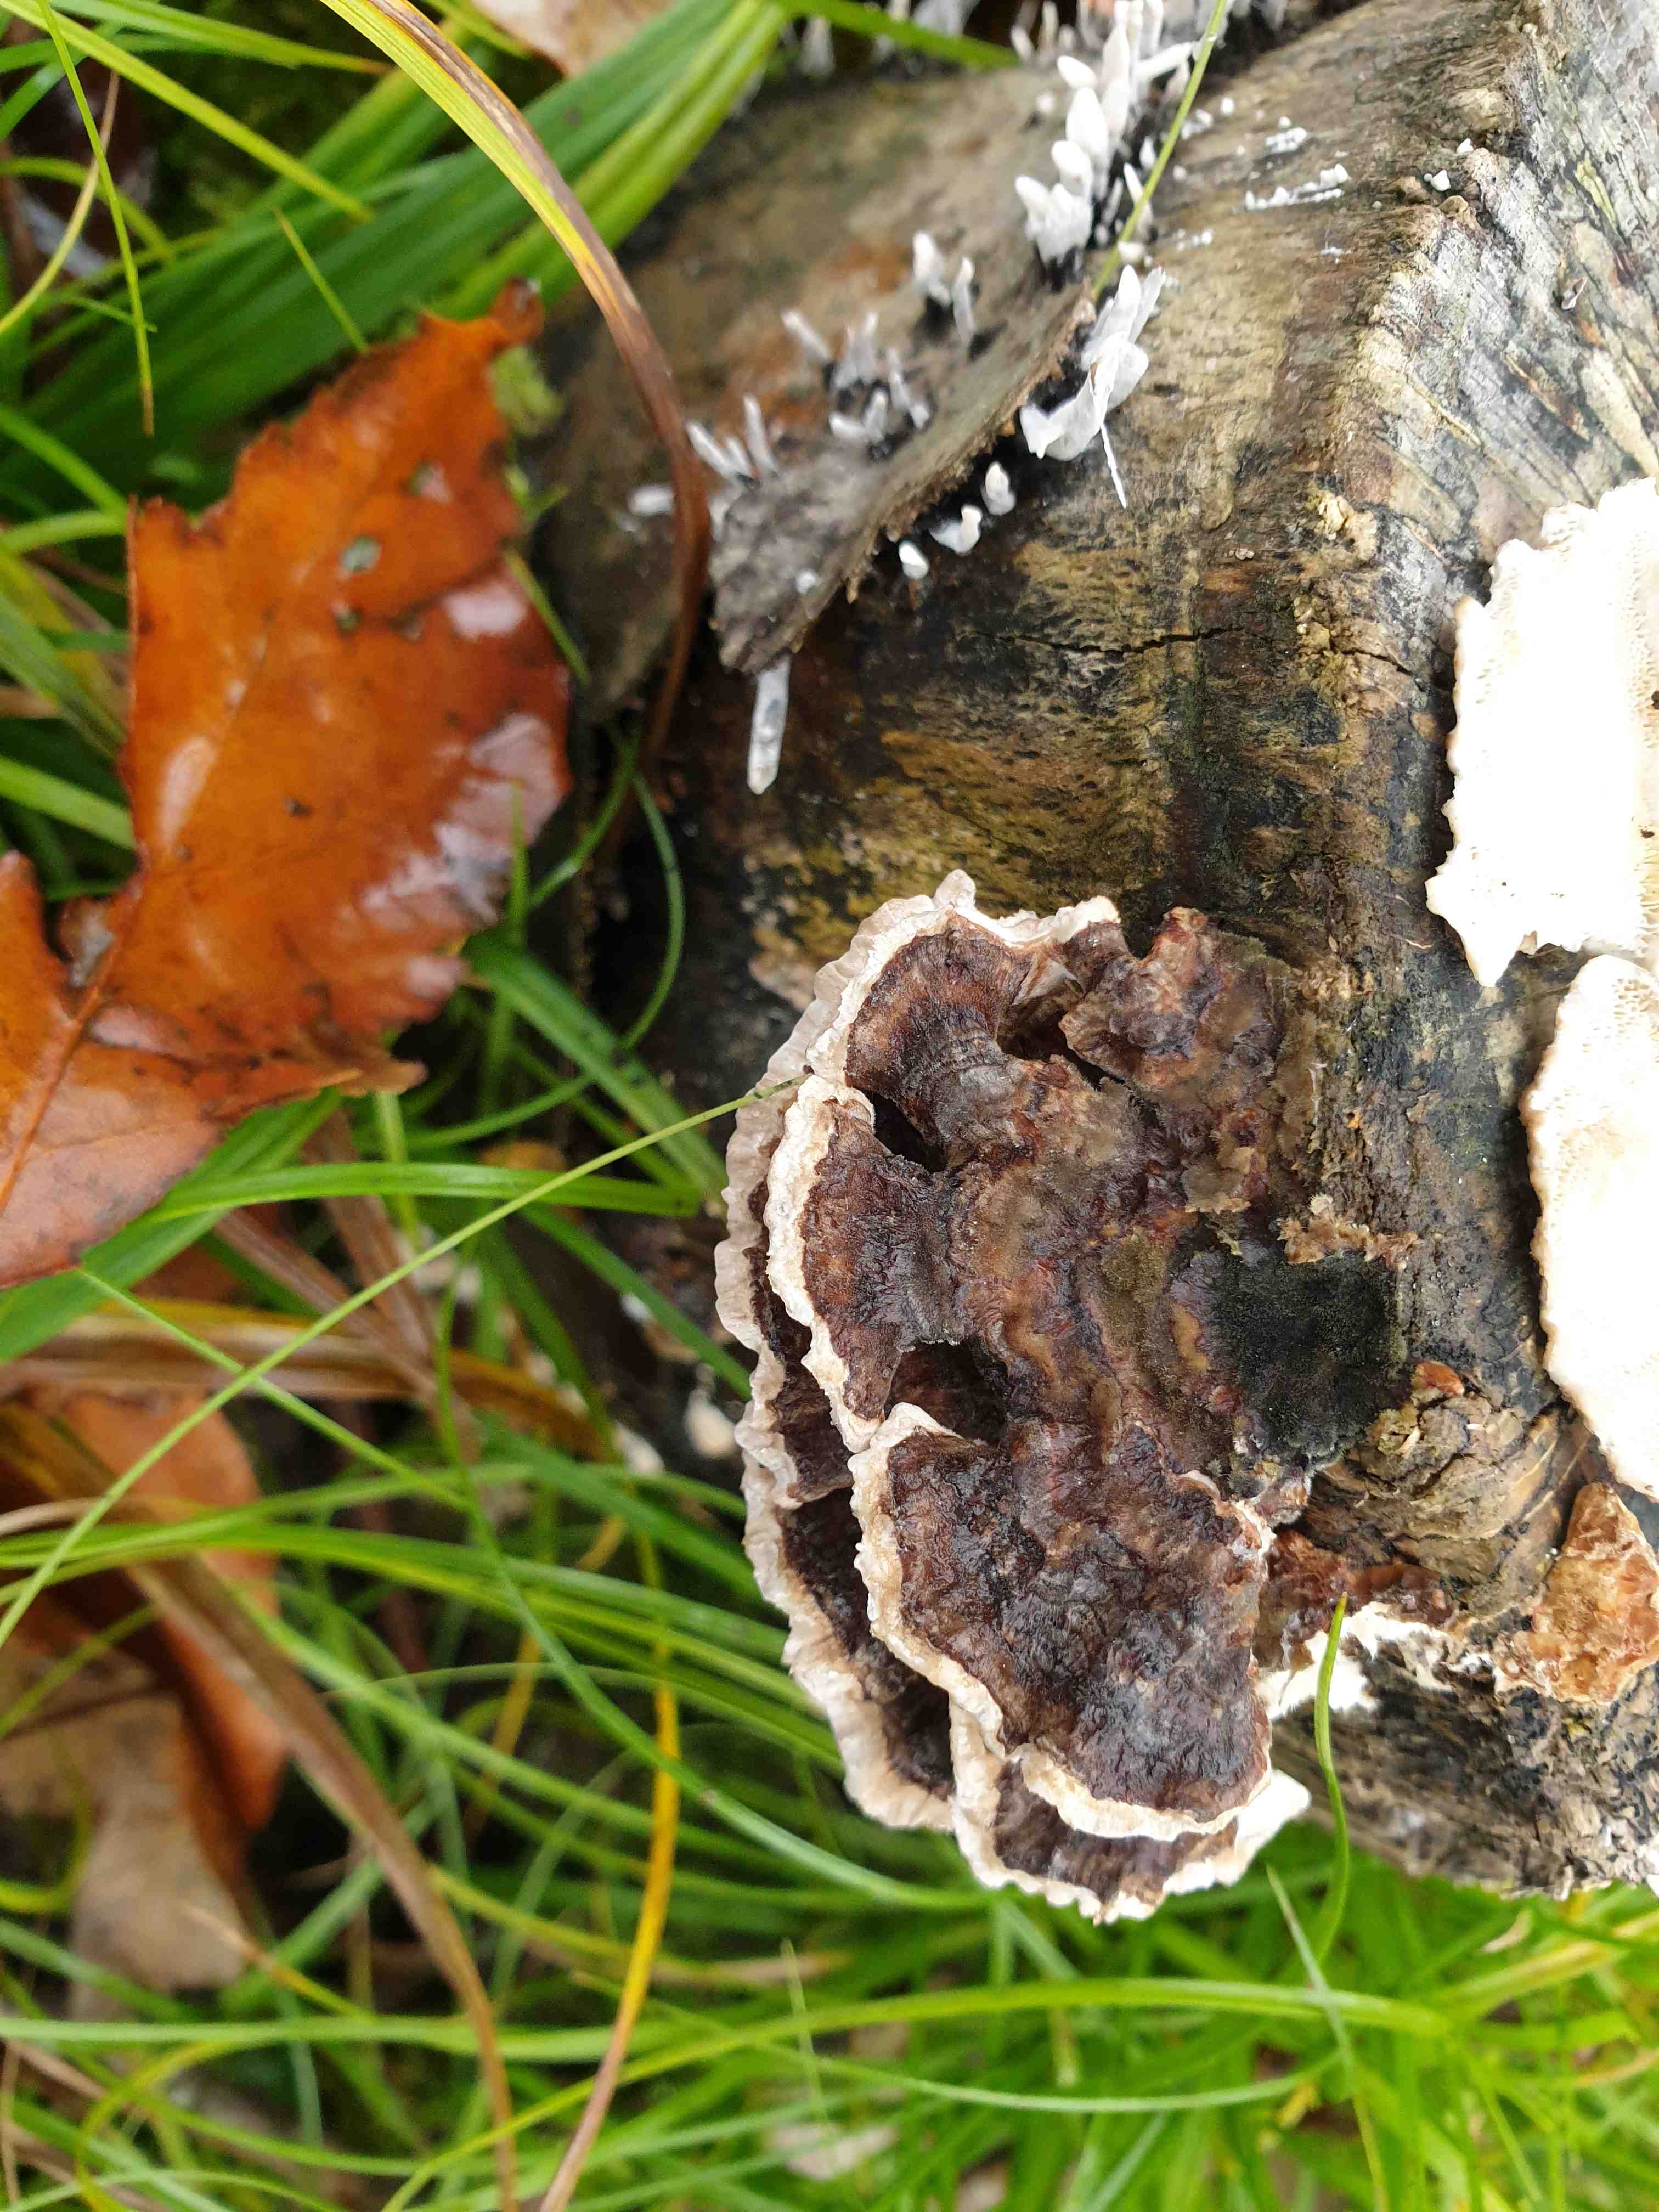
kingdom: Fungi
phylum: Basidiomycota
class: Agaricomycetes
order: Polyporales
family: Polyporaceae
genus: Trametes
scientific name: Trametes versicolor
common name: broget læderporesvamp
